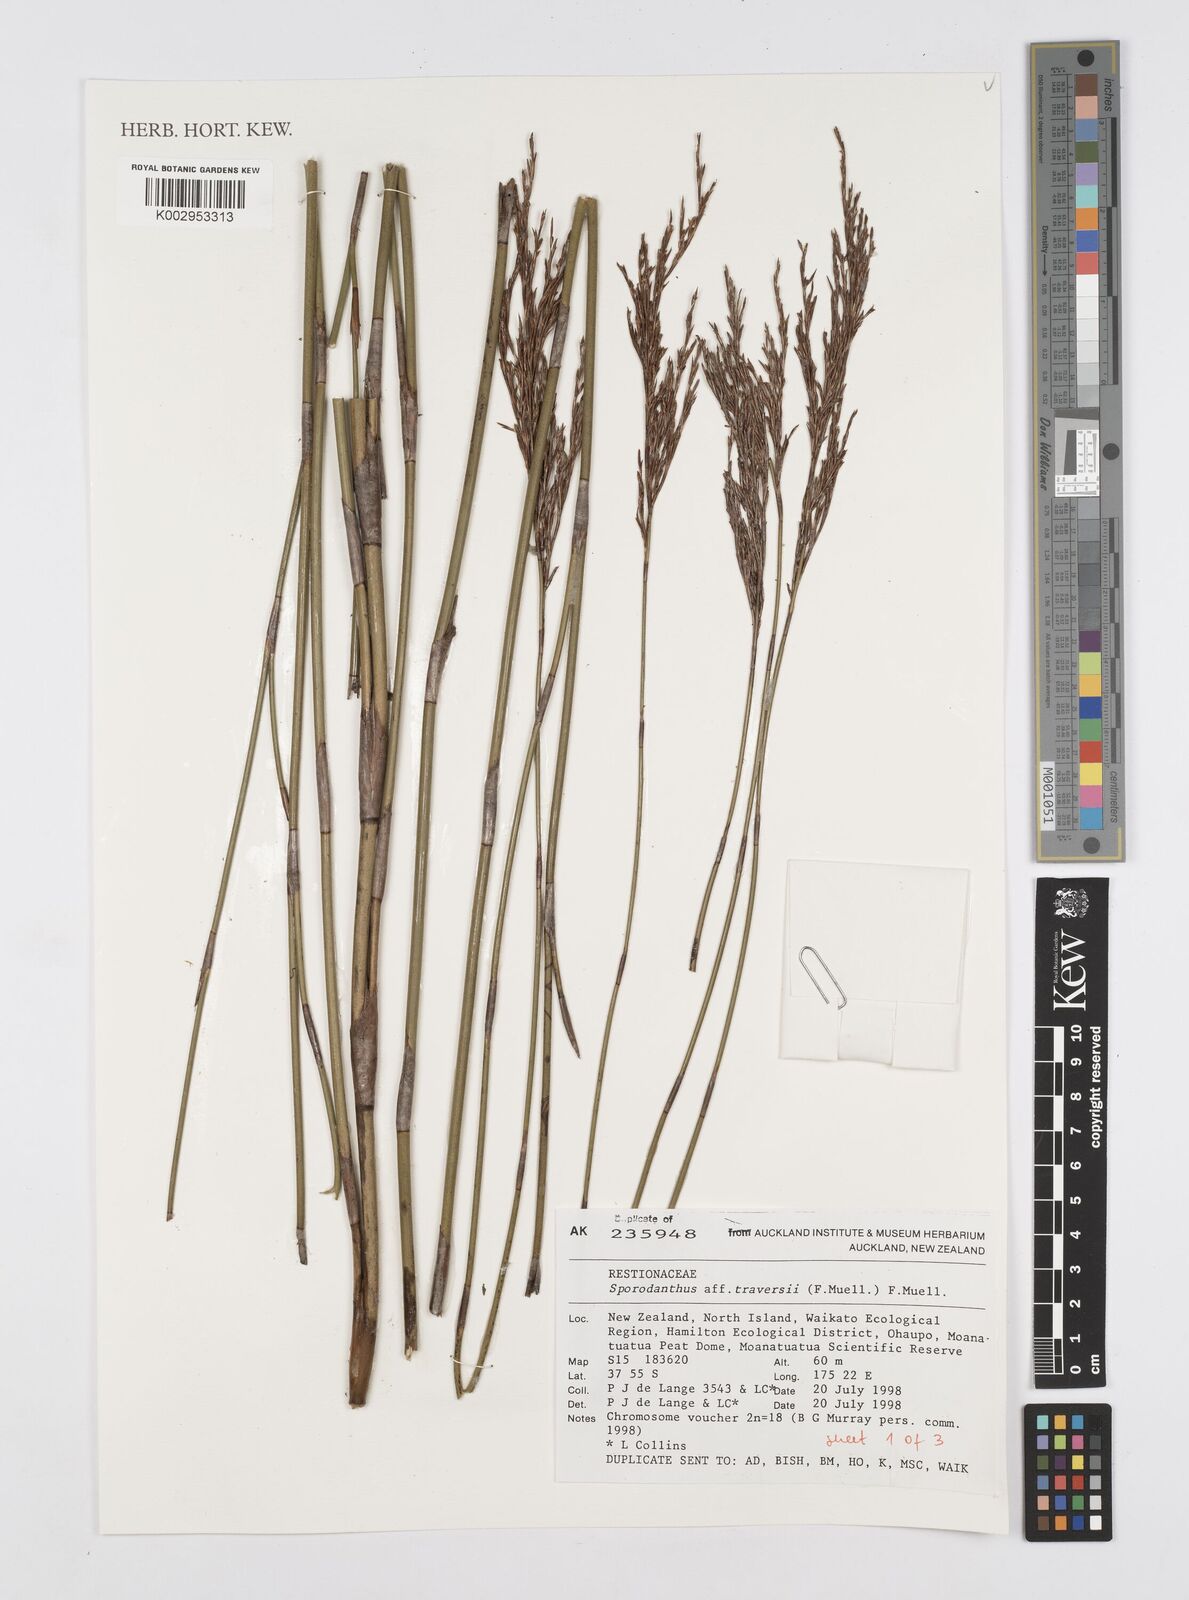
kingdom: Plantae
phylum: Tracheophyta
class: Liliopsida
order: Poales
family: Restionaceae
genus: Sporadanthus
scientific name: Sporadanthus traversii
